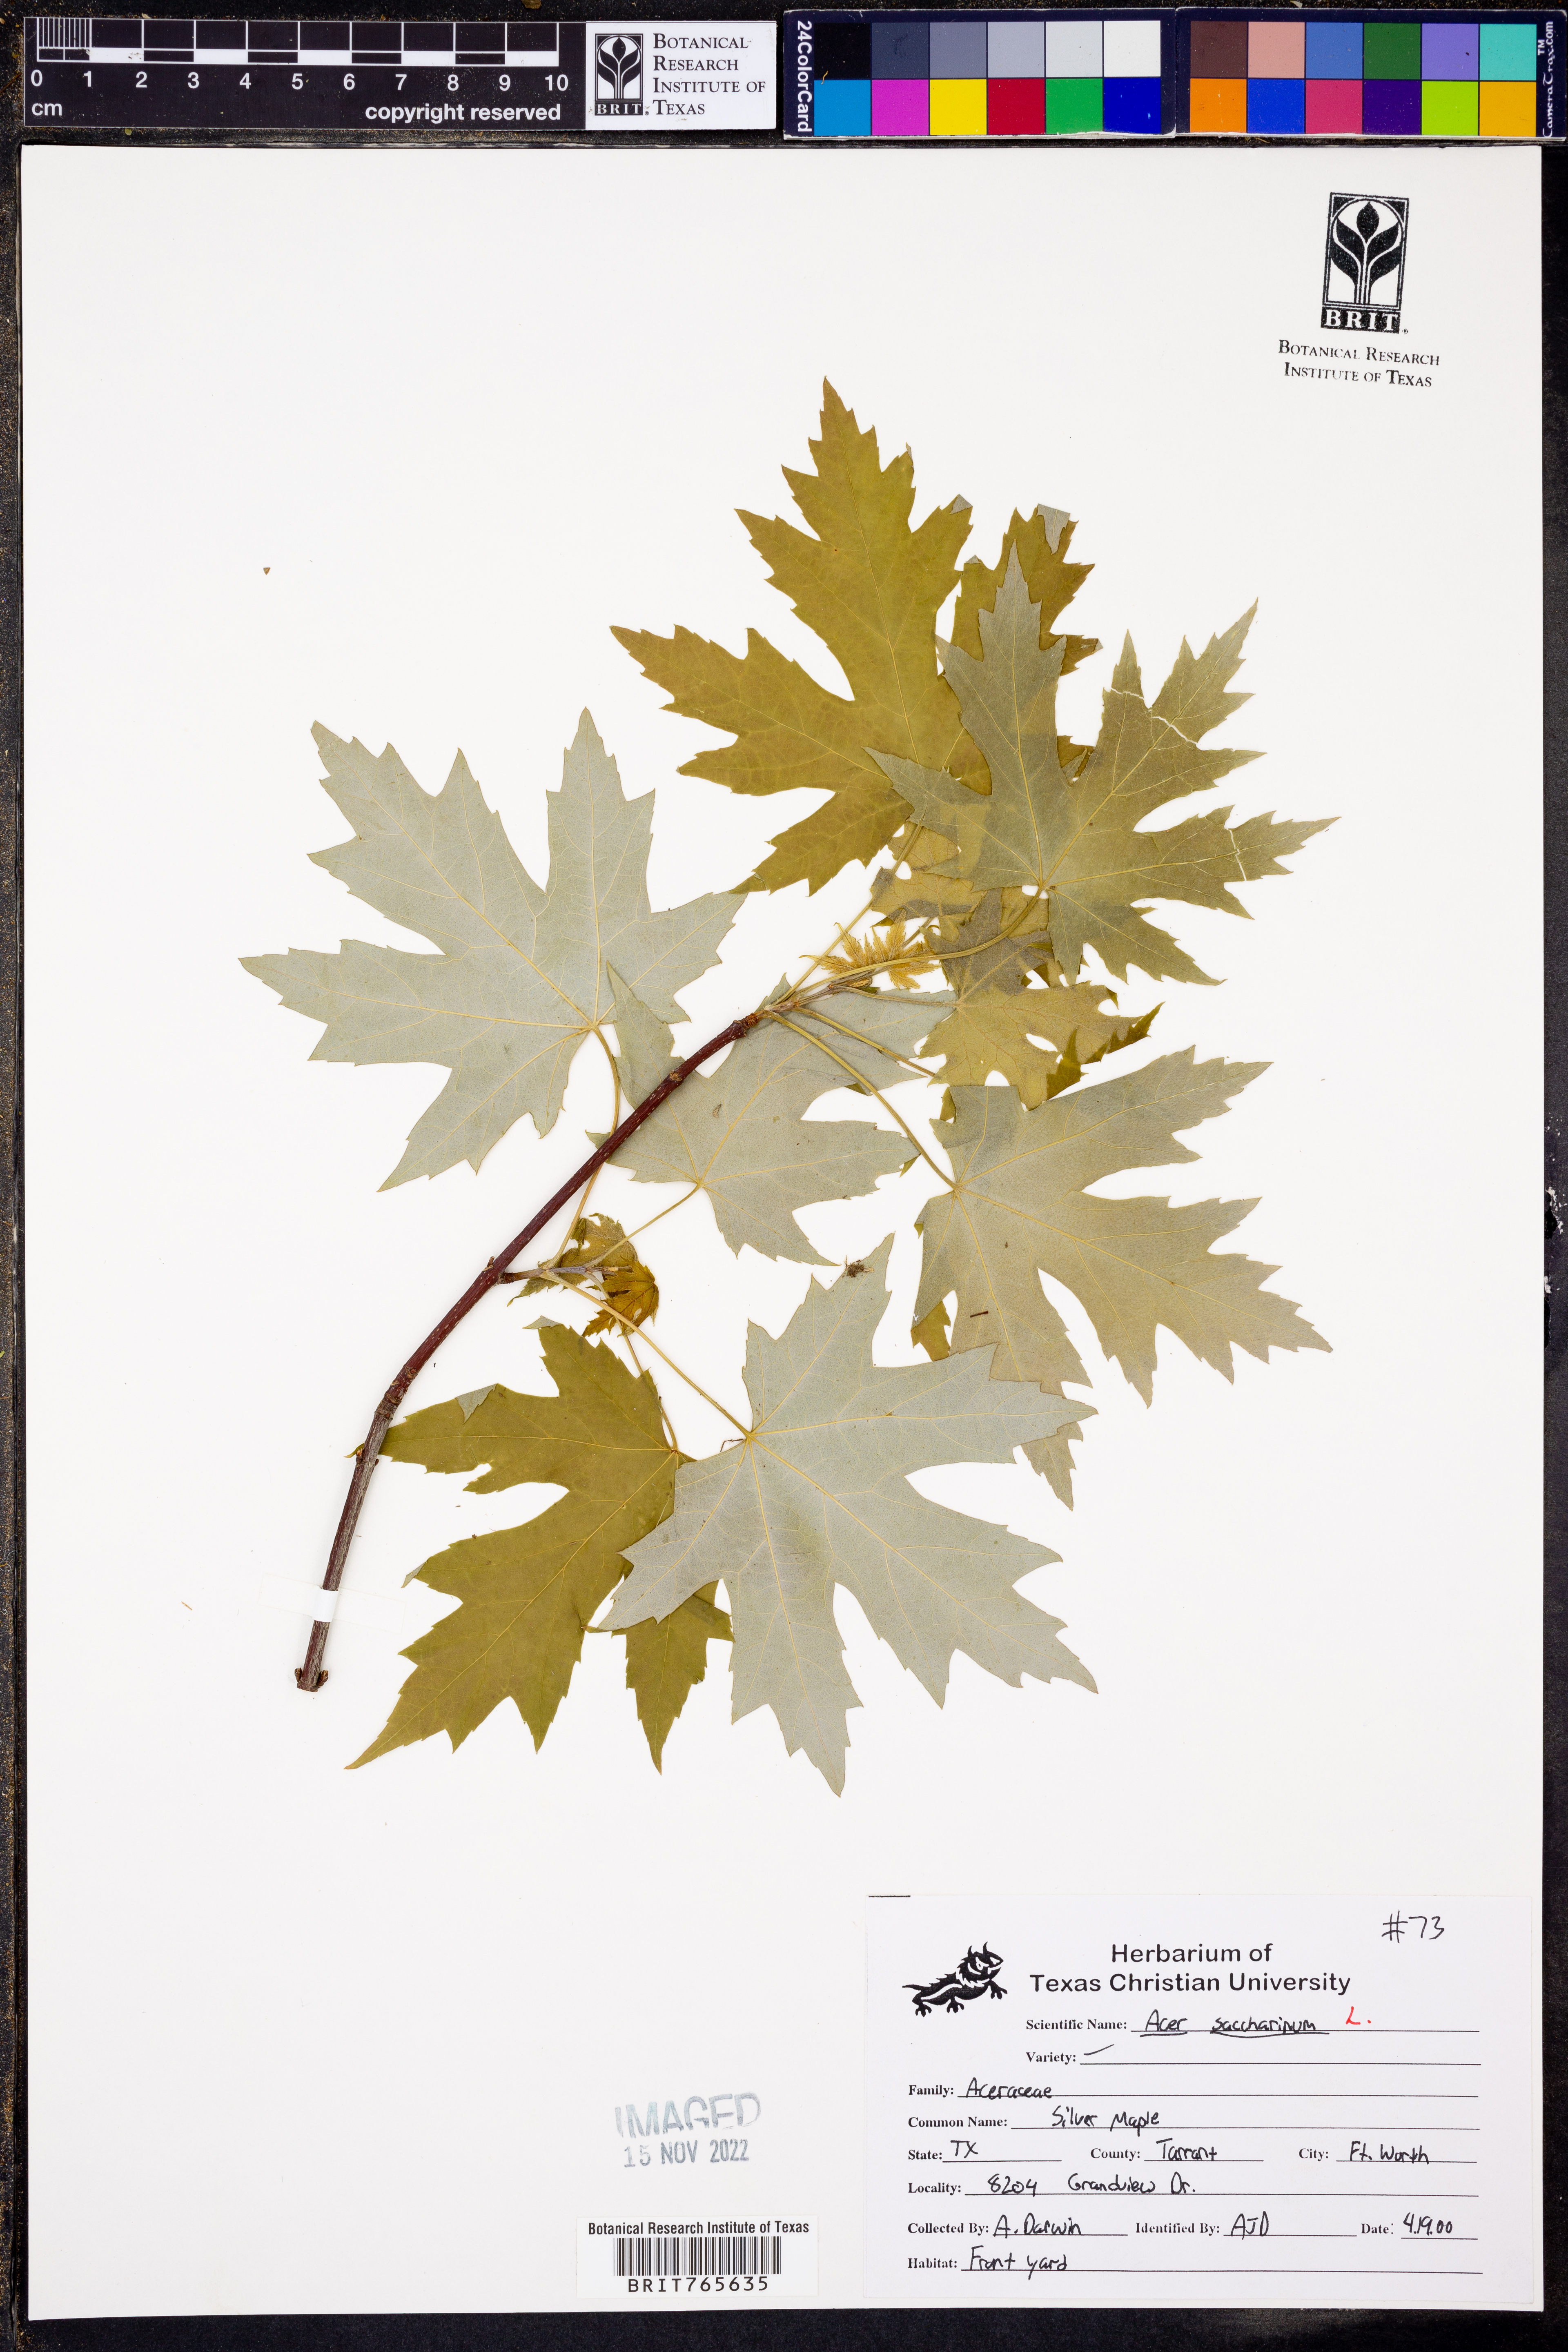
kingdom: Plantae
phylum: Tracheophyta
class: Magnoliopsida
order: Sapindales
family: Sapindaceae
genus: Acer
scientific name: Acer saccharinum
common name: Silver maple
